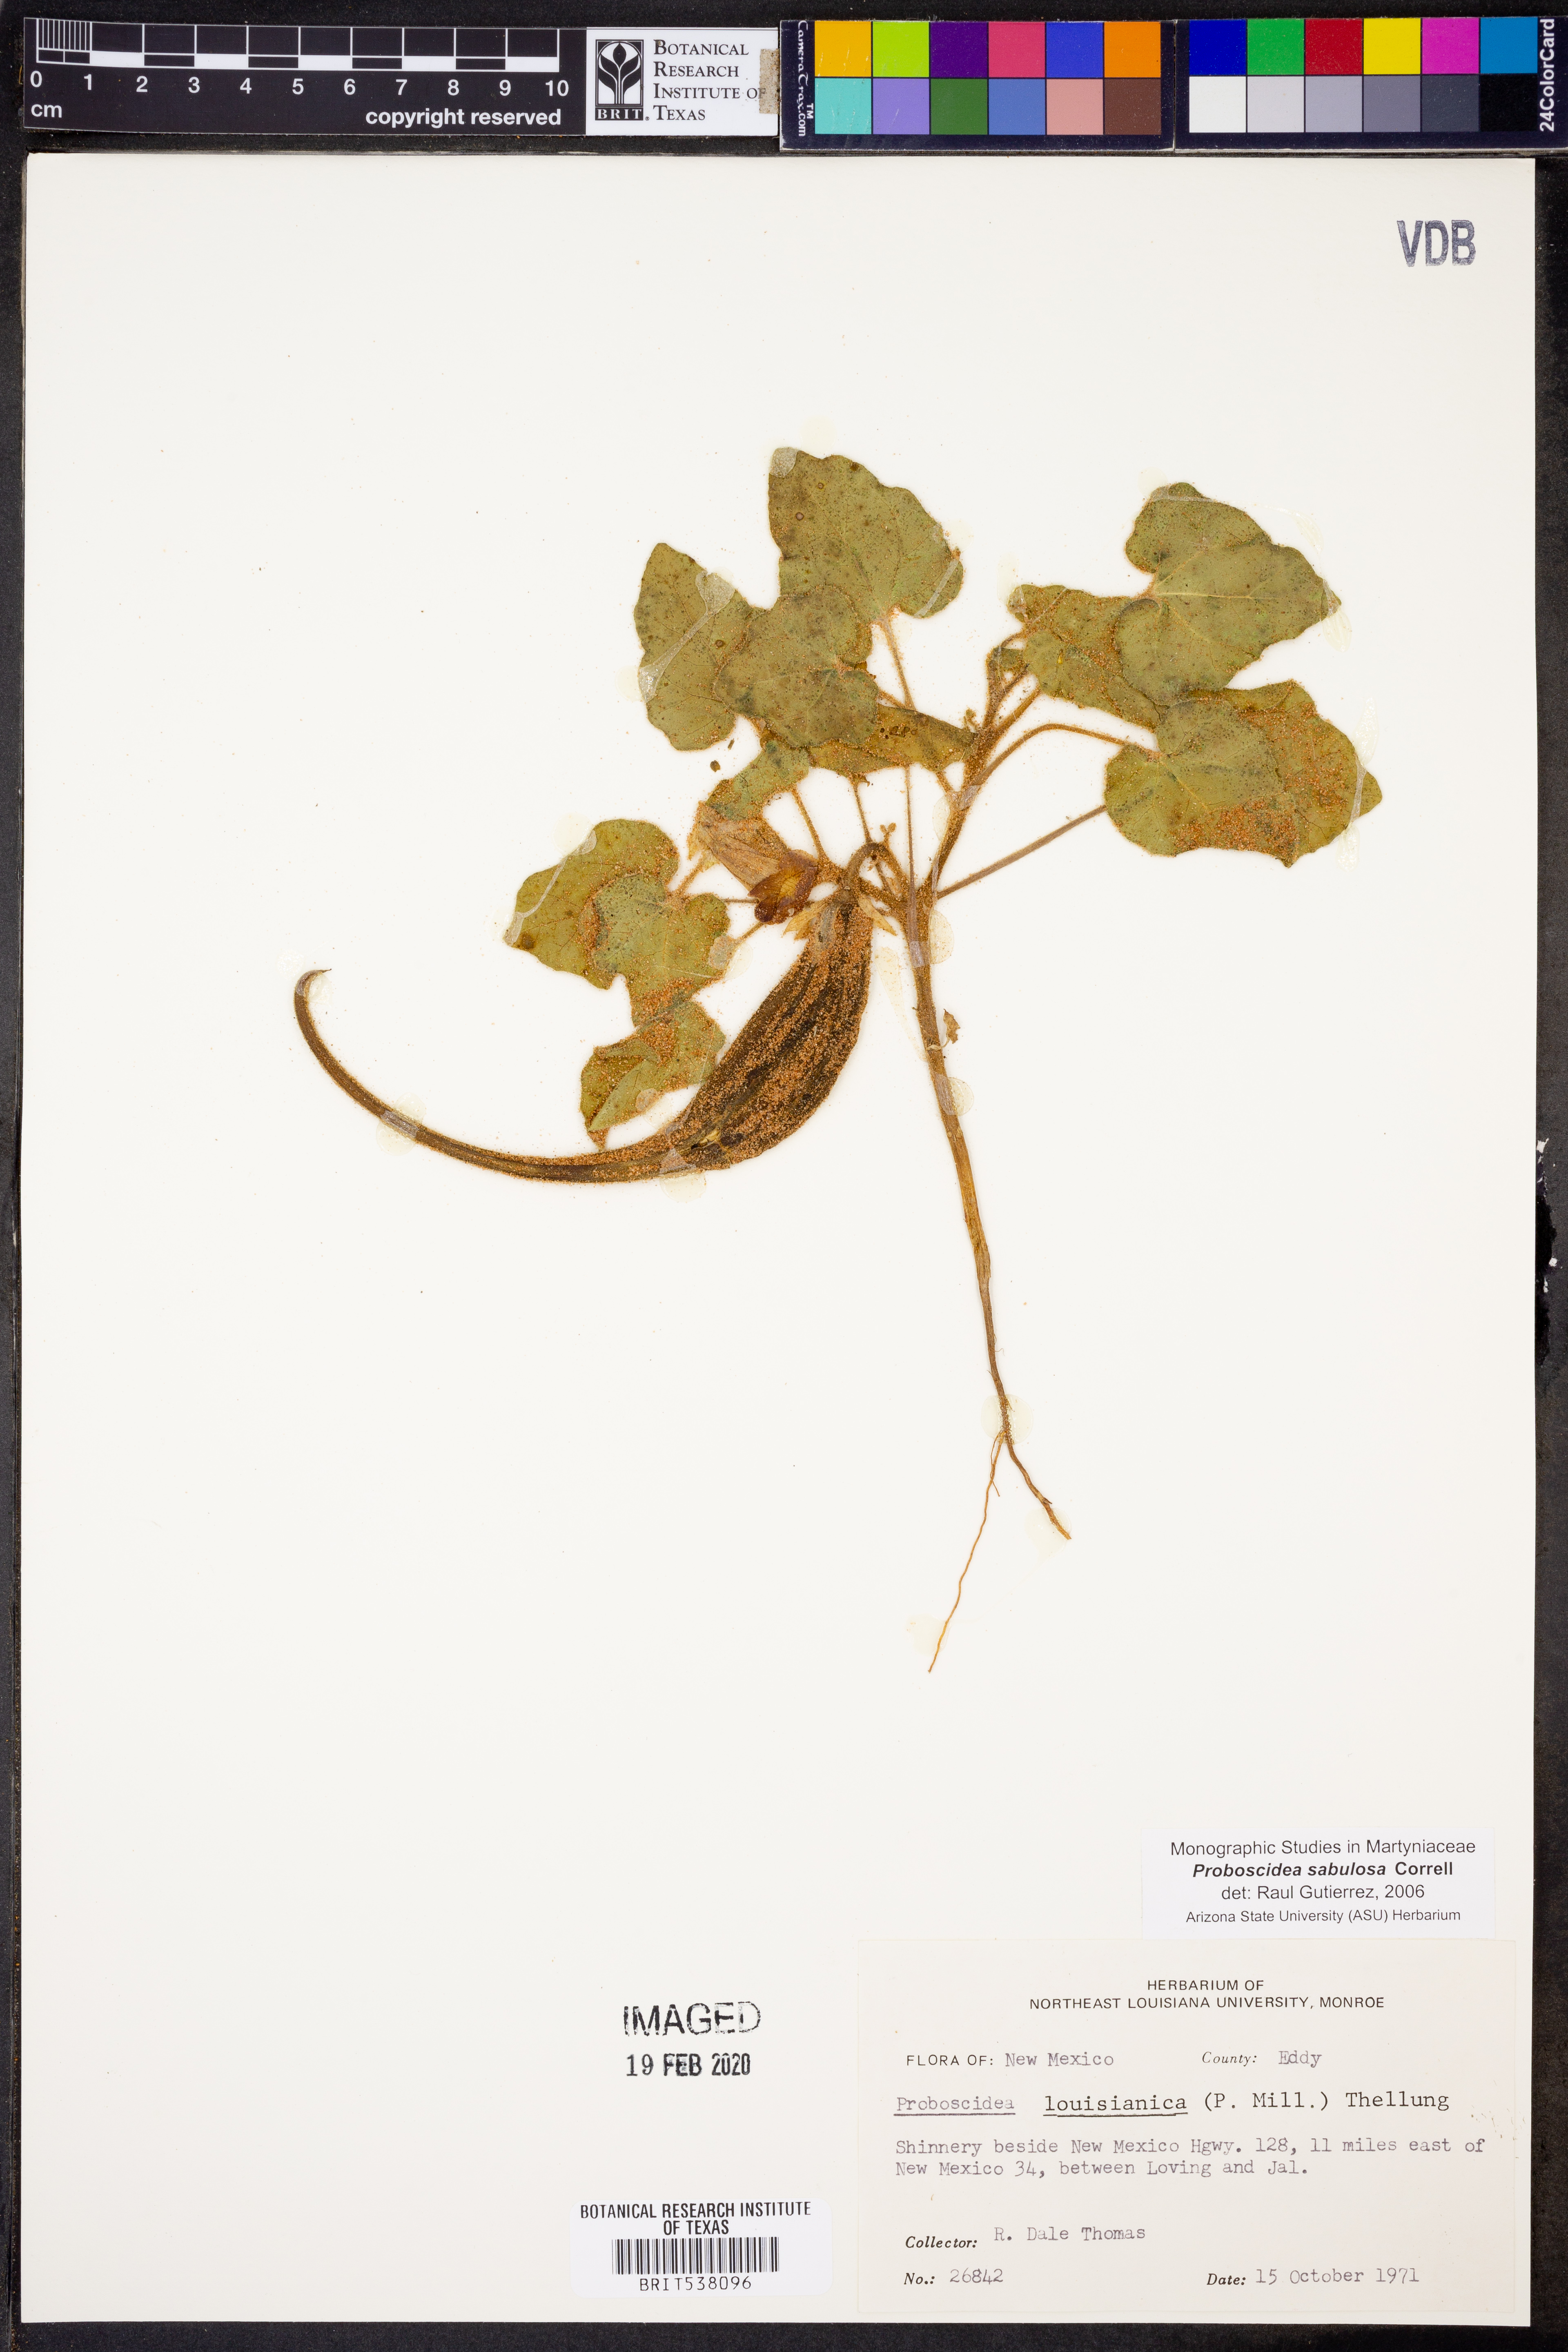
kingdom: Plantae
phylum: Tracheophyta
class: Magnoliopsida
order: Lamiales
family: Martyniaceae
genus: Proboscidea
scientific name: Proboscidea louisianica
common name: Elephant tusks
